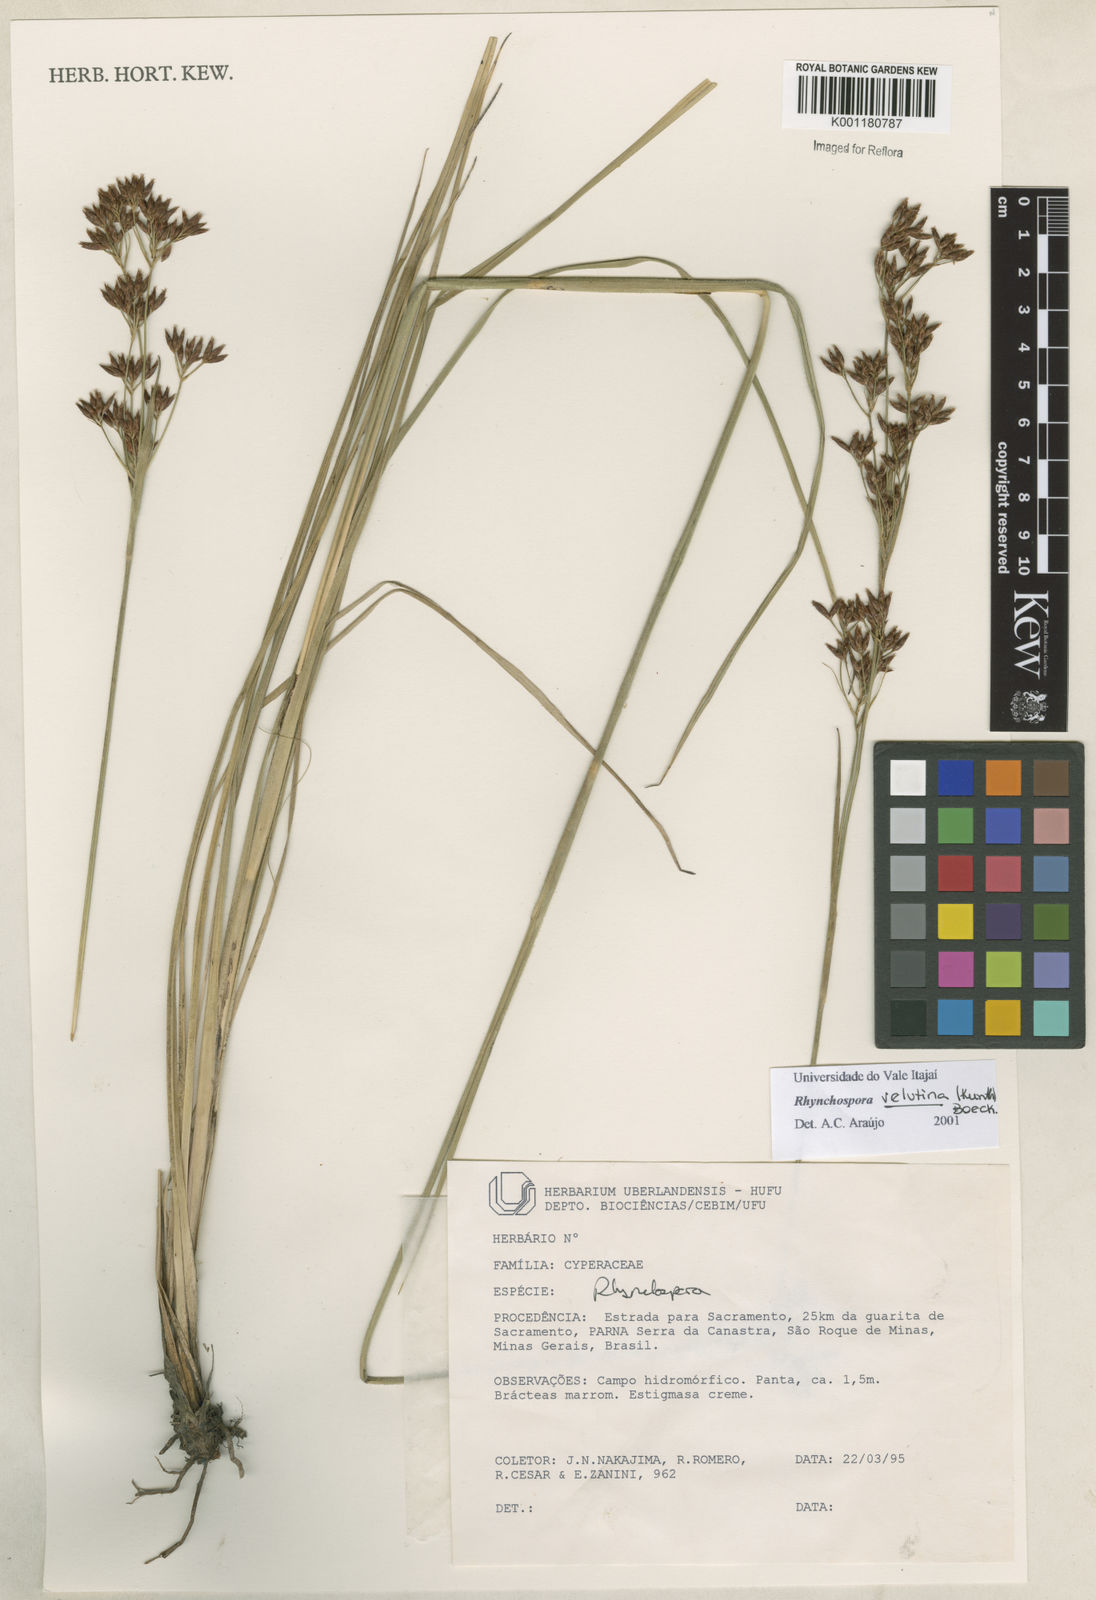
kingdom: Plantae
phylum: Tracheophyta
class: Liliopsida
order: Poales
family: Cyperaceae
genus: Rhynchospora
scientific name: Rhynchospora velutina
